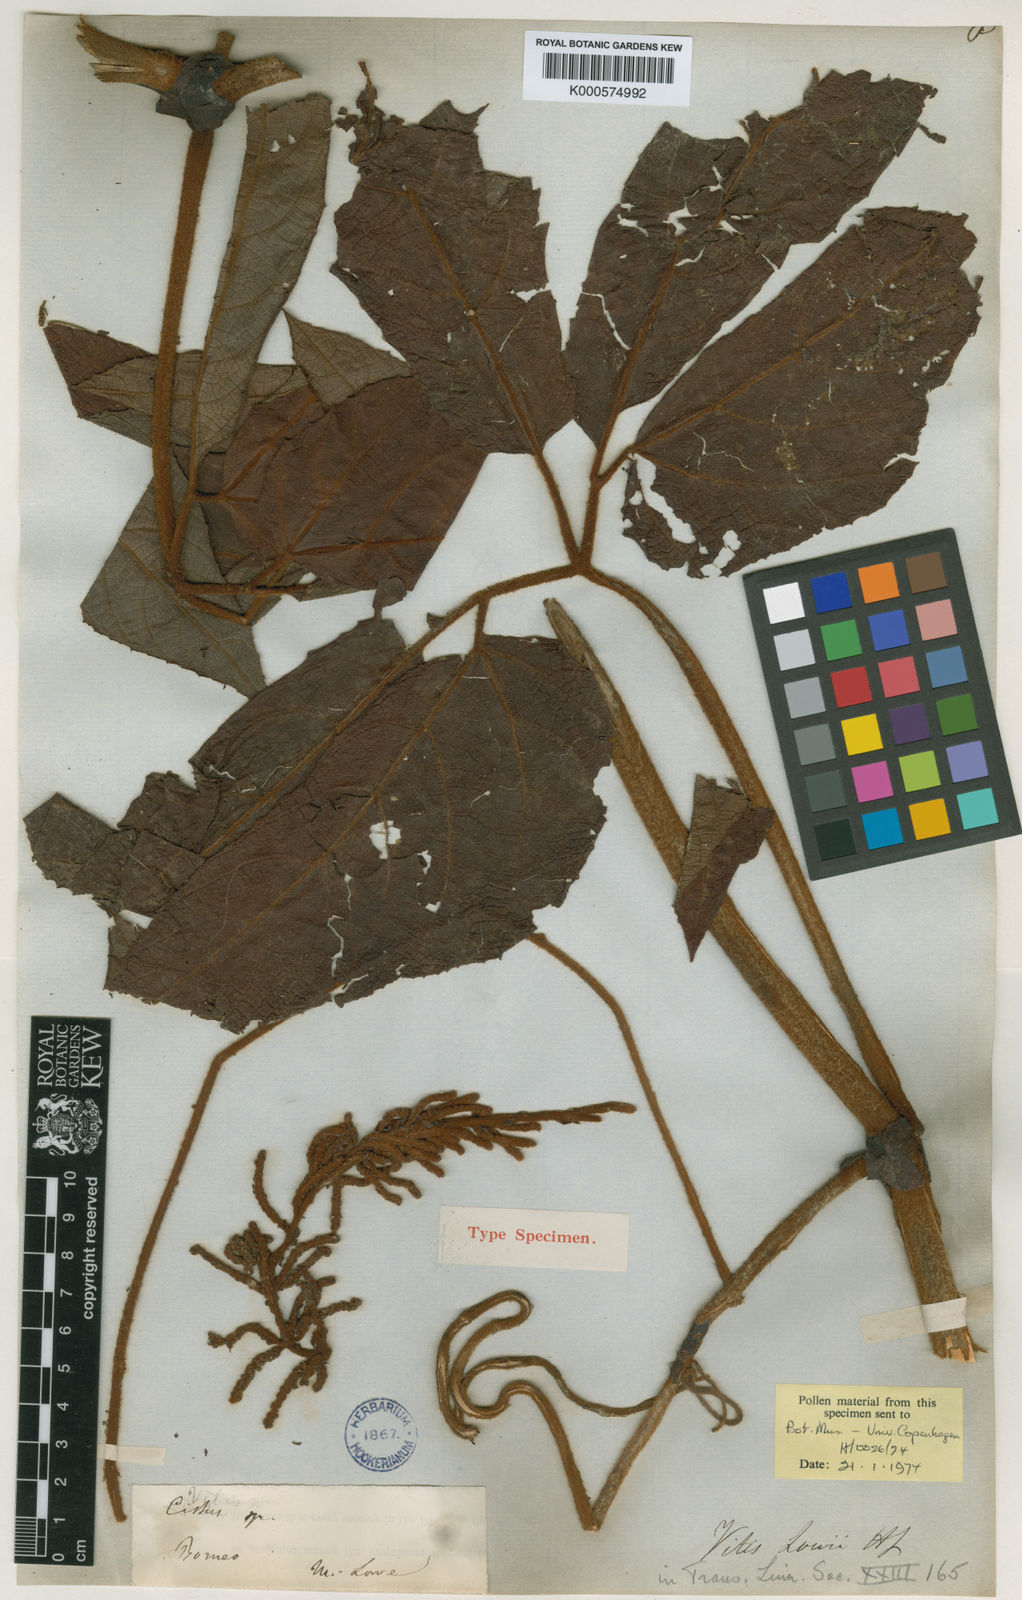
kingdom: Plantae
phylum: Tracheophyta
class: Magnoliopsida
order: Vitales
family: Vitaceae
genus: Ampelocissus
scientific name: Ampelocissus lowii
